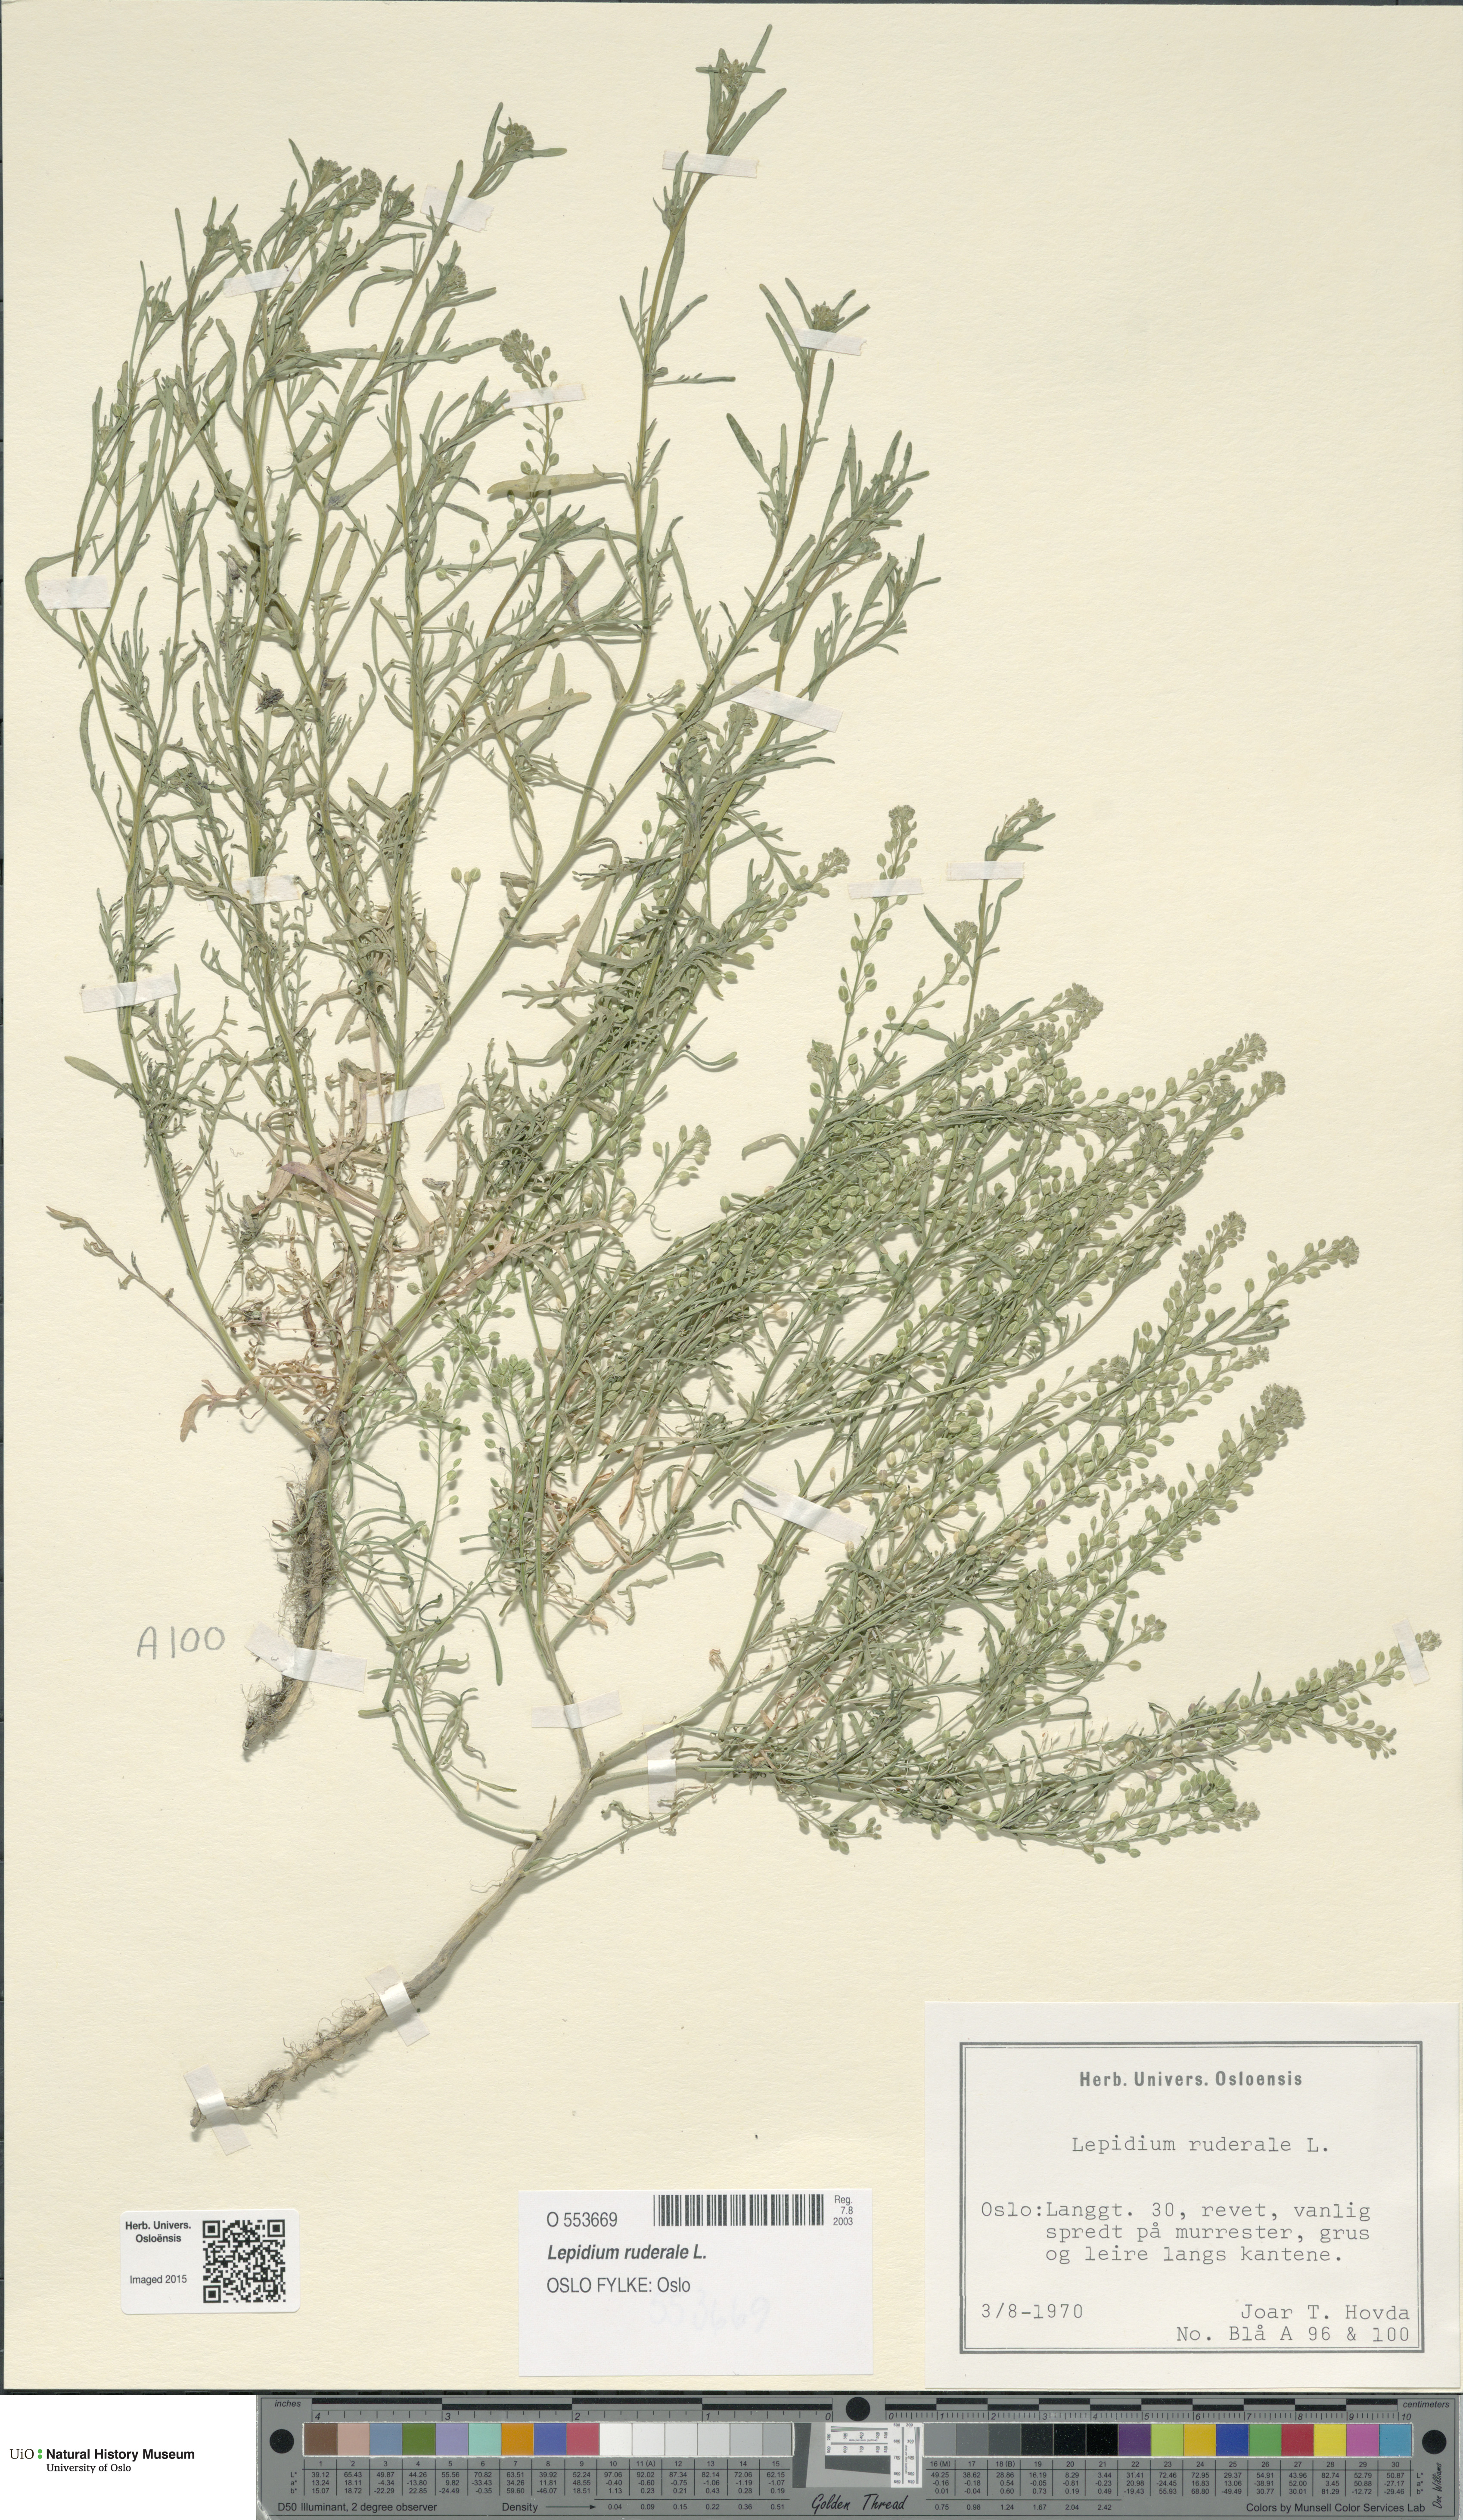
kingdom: Plantae
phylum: Tracheophyta
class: Magnoliopsida
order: Brassicales
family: Brassicaceae
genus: Lepidium
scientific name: Lepidium ruderale
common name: Narrow-leaved pepperwort
